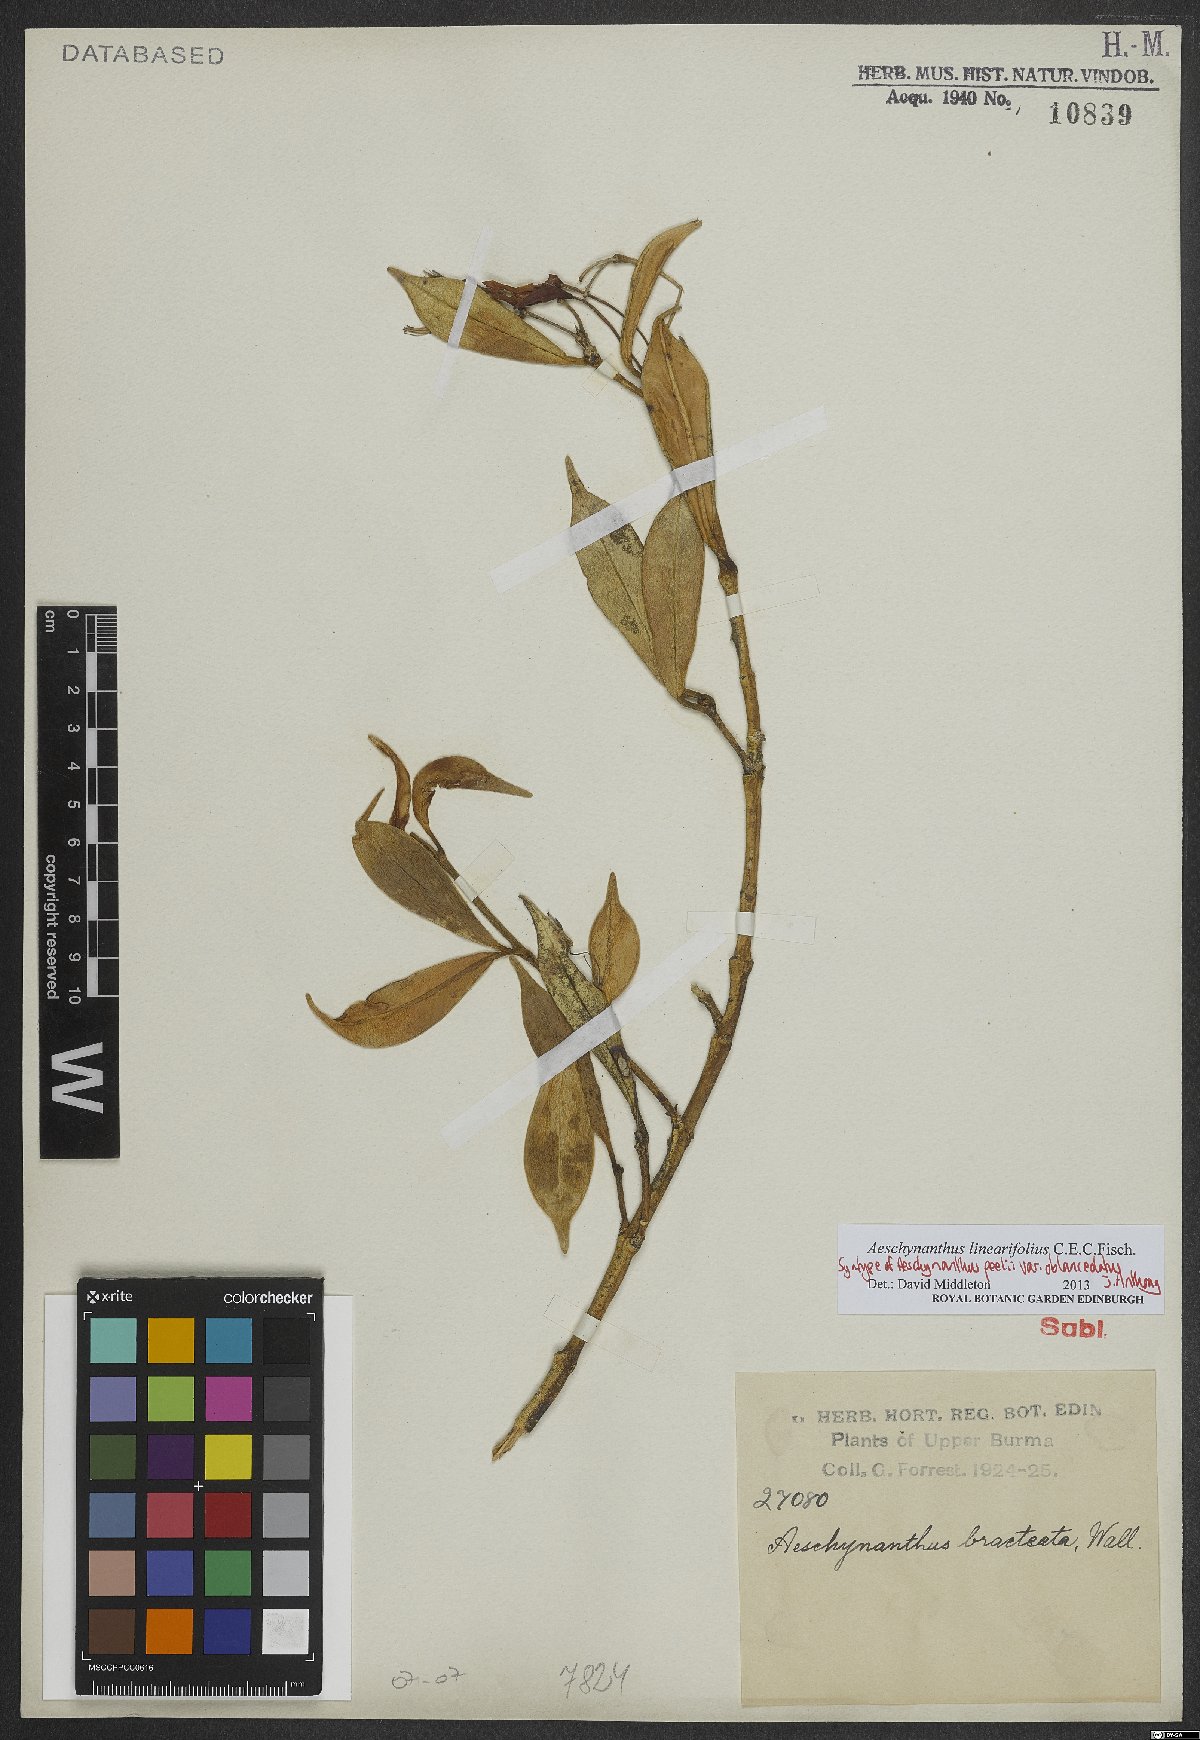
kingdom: Plantae
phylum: Tracheophyta
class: Magnoliopsida
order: Lamiales
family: Gesneriaceae
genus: Aeschynanthus
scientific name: Aeschynanthus linearifolius
